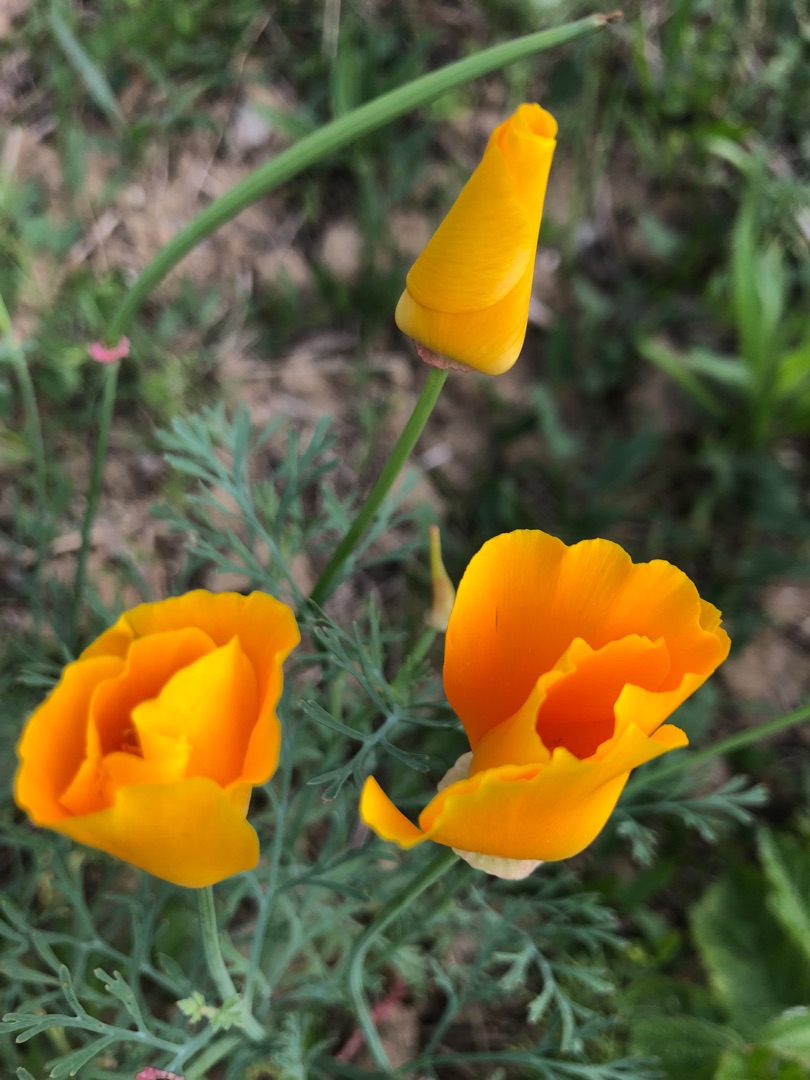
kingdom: Plantae
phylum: Tracheophyta
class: Magnoliopsida
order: Ranunculales
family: Papaveraceae
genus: Eschscholzia
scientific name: Eschscholzia californica
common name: Guldvalmue
